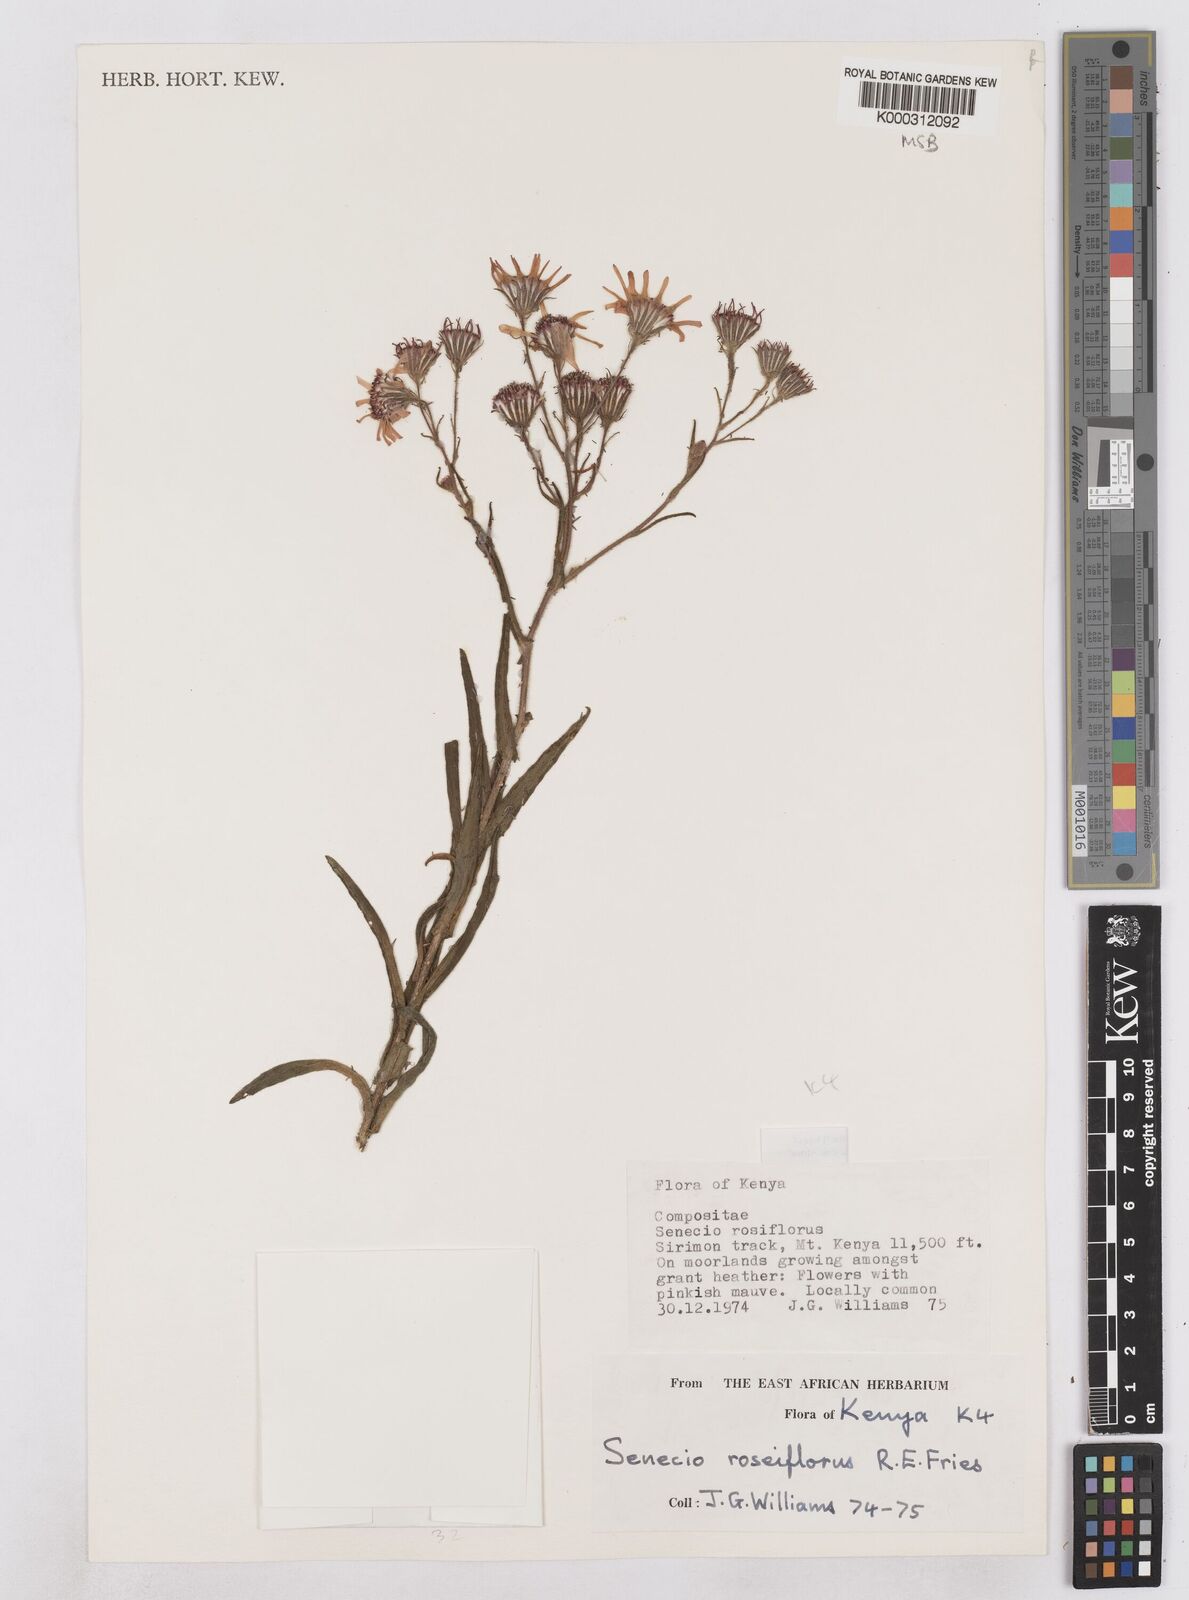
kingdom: Plantae
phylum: Tracheophyta
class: Magnoliopsida
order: Asterales
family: Asteraceae
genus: Senecio
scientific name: Senecio roseiflorus
